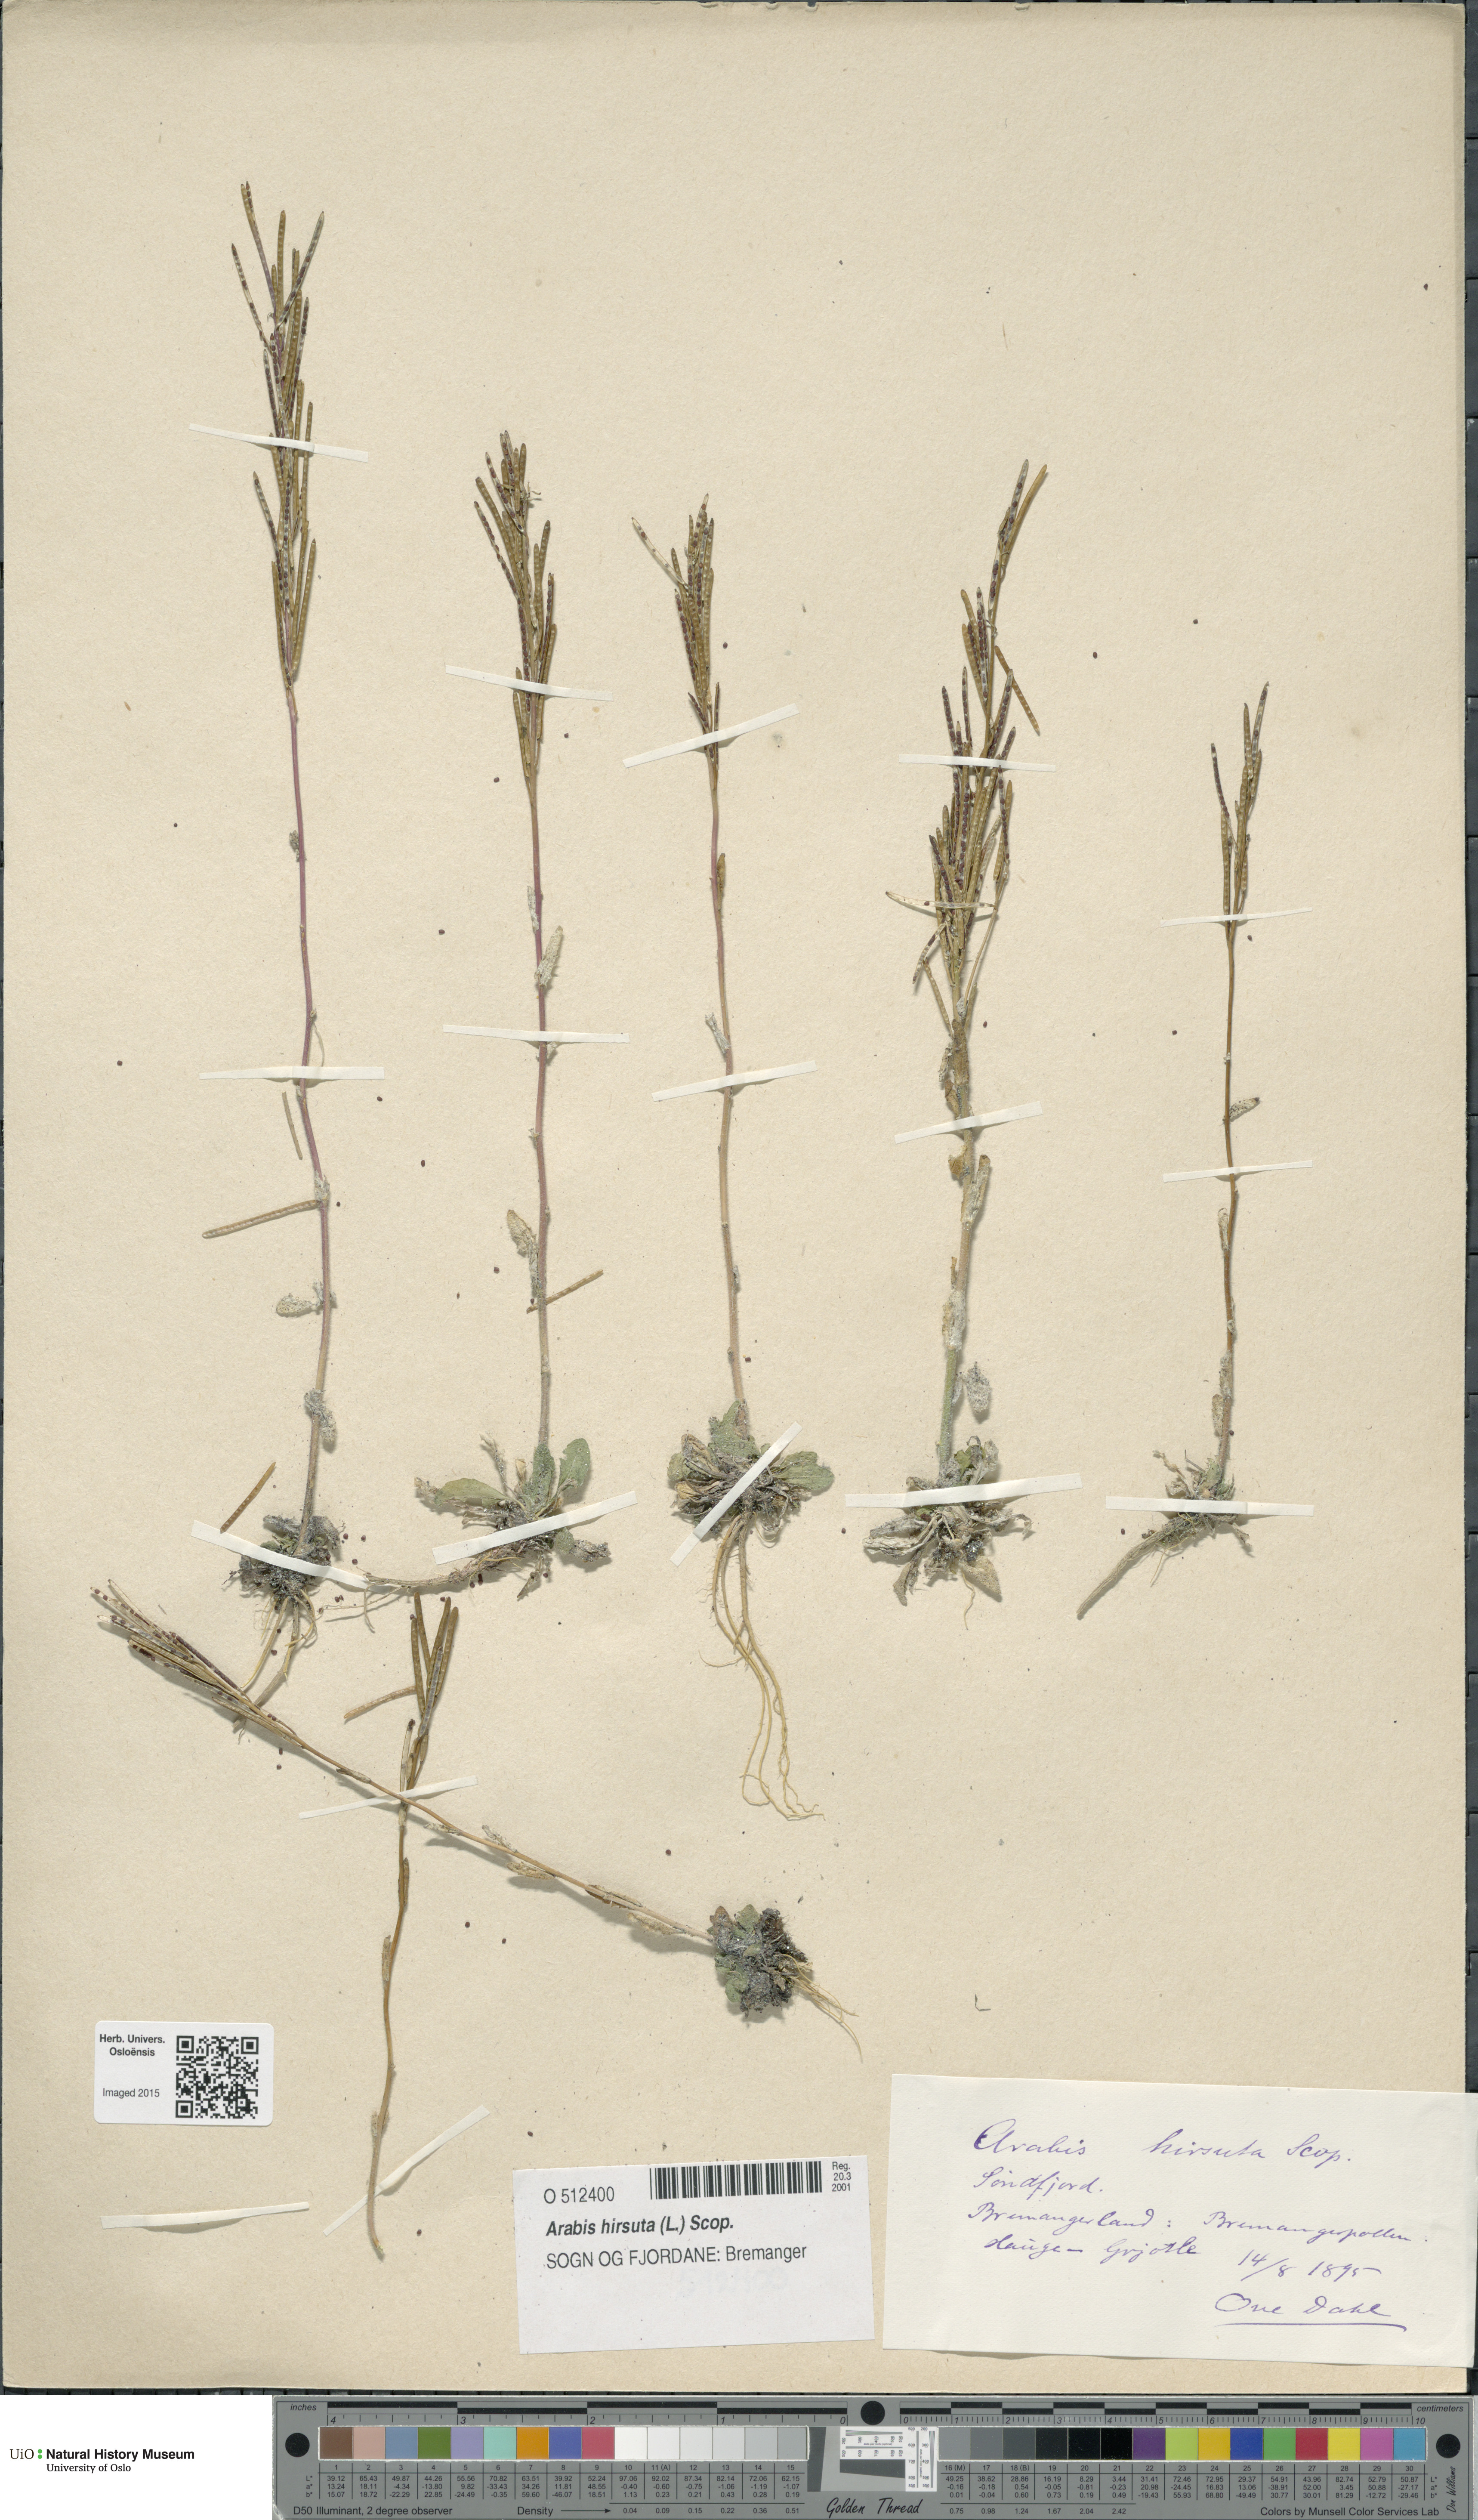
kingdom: Plantae
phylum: Tracheophyta
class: Magnoliopsida
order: Brassicales
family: Brassicaceae
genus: Arabis
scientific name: Arabis hirsuta
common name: Hairy rock-cress
